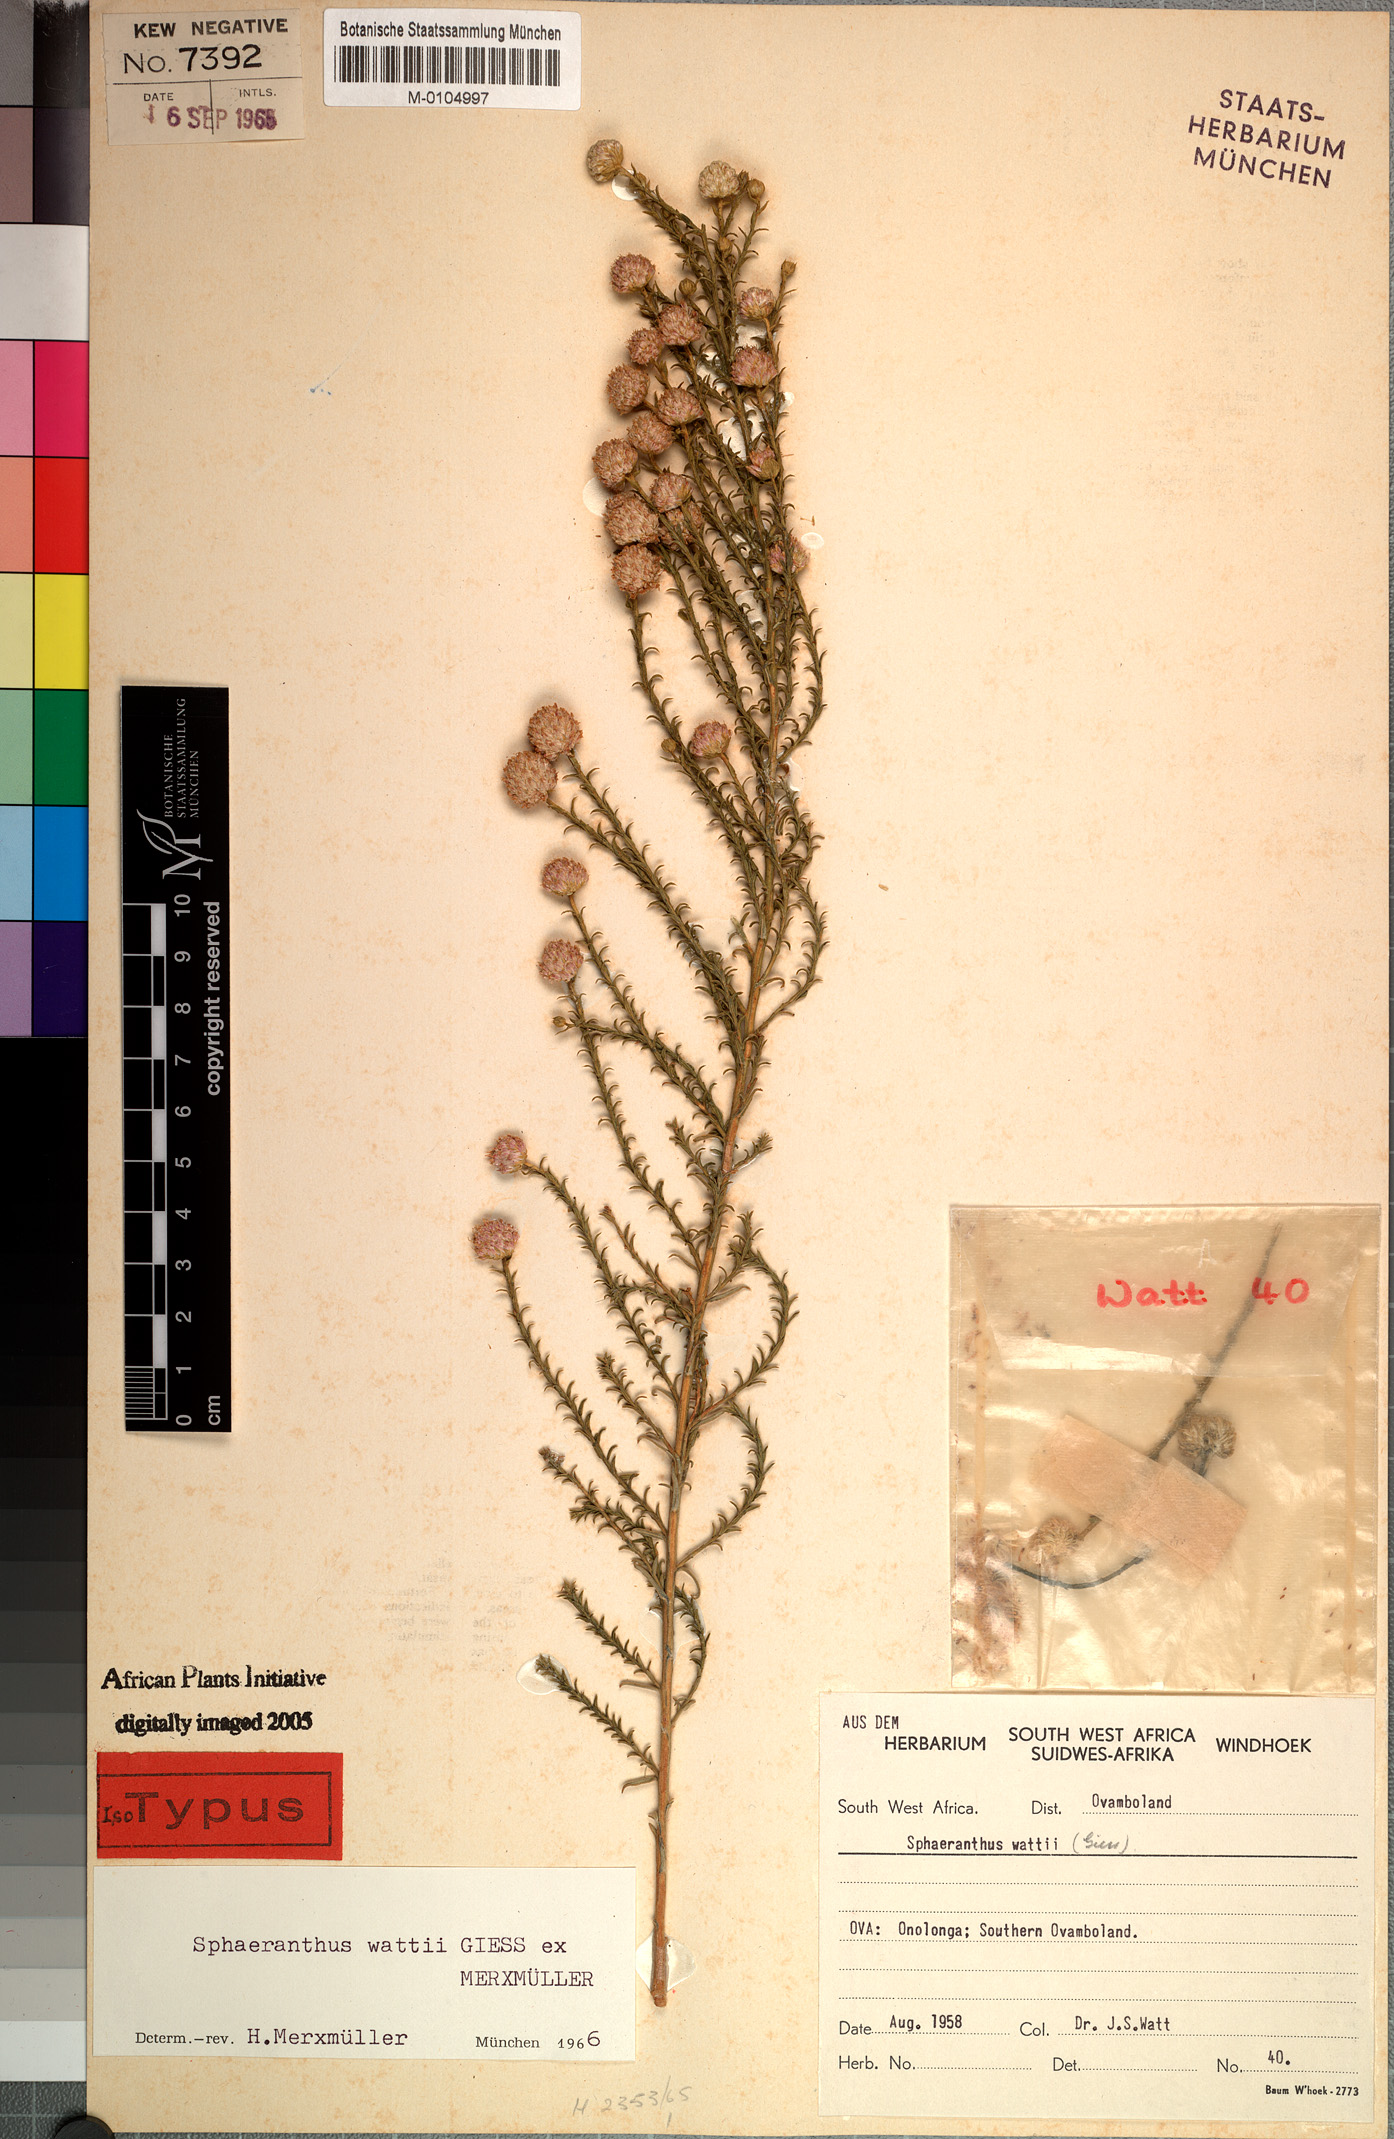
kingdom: Plantae
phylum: Tracheophyta
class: Magnoliopsida
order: Asterales
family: Asteraceae
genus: Sphaeranthus
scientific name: Sphaeranthus wattii
